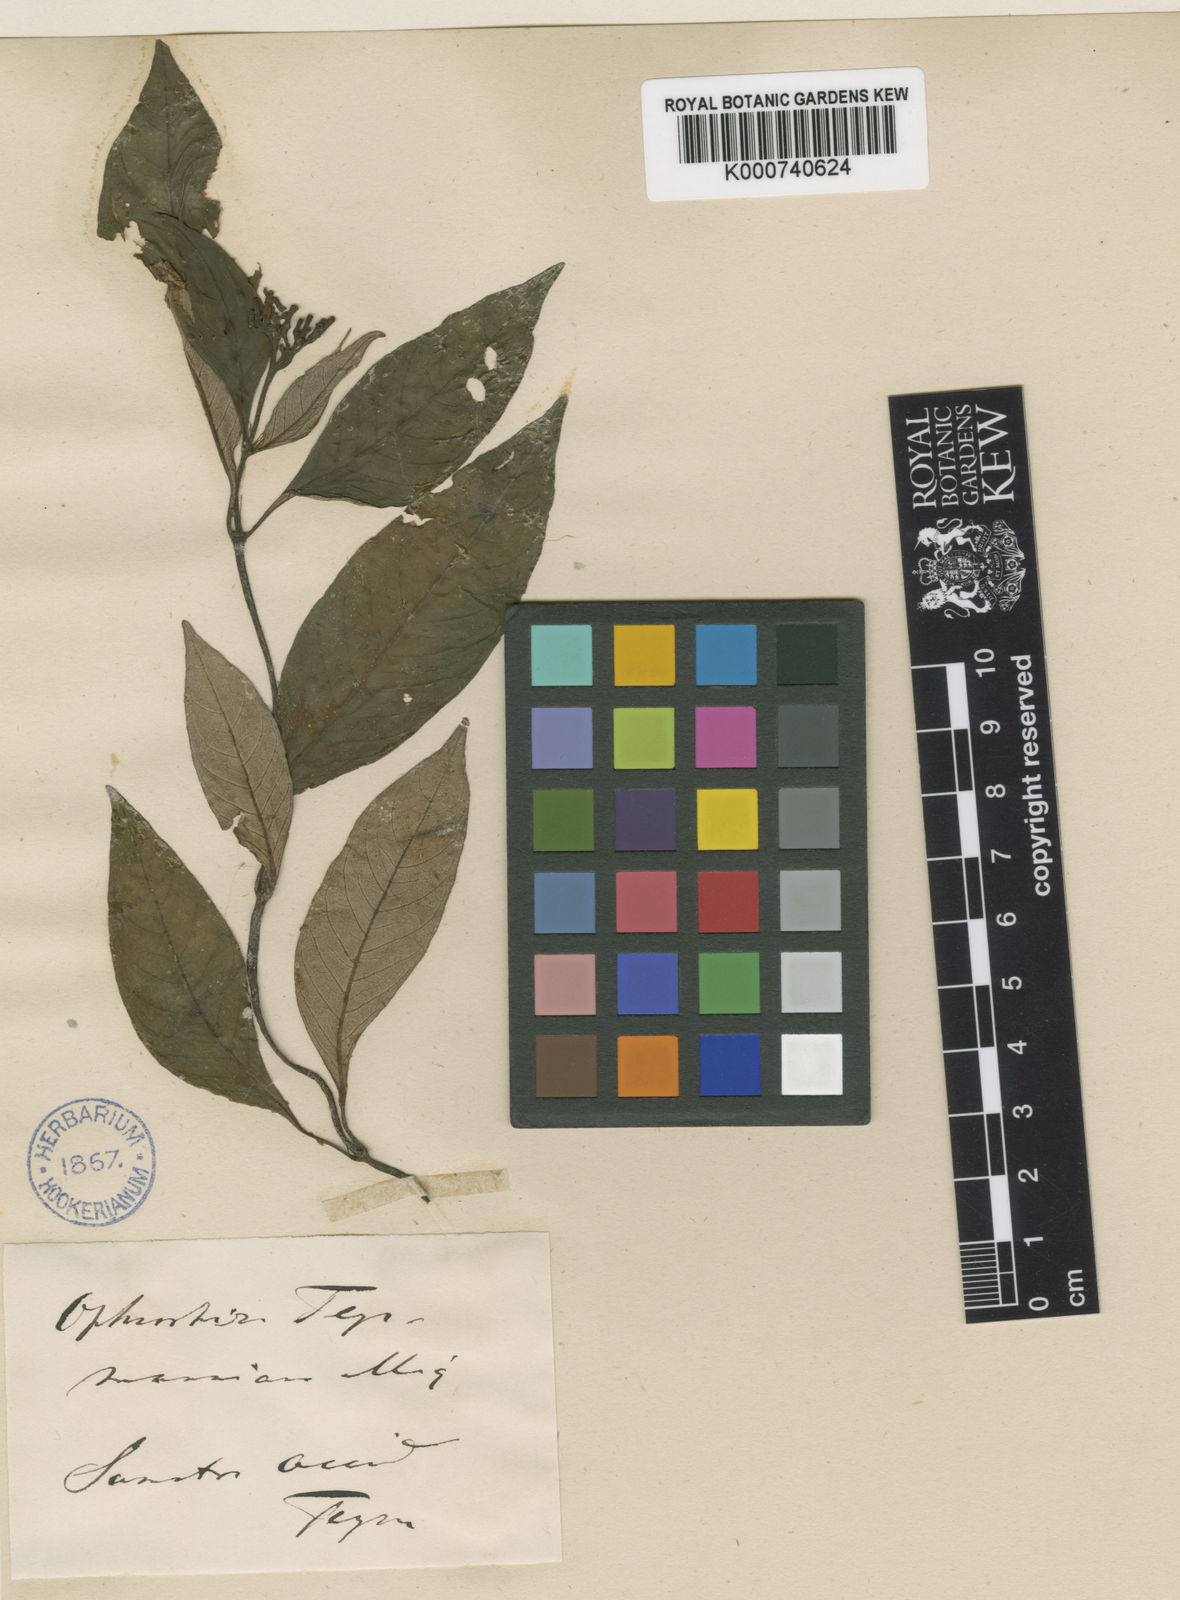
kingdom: Plantae
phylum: Tracheophyta
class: Magnoliopsida
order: Gentianales
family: Rubiaceae
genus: Ophiorrhiza
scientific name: Ophiorrhiza teysmannii
